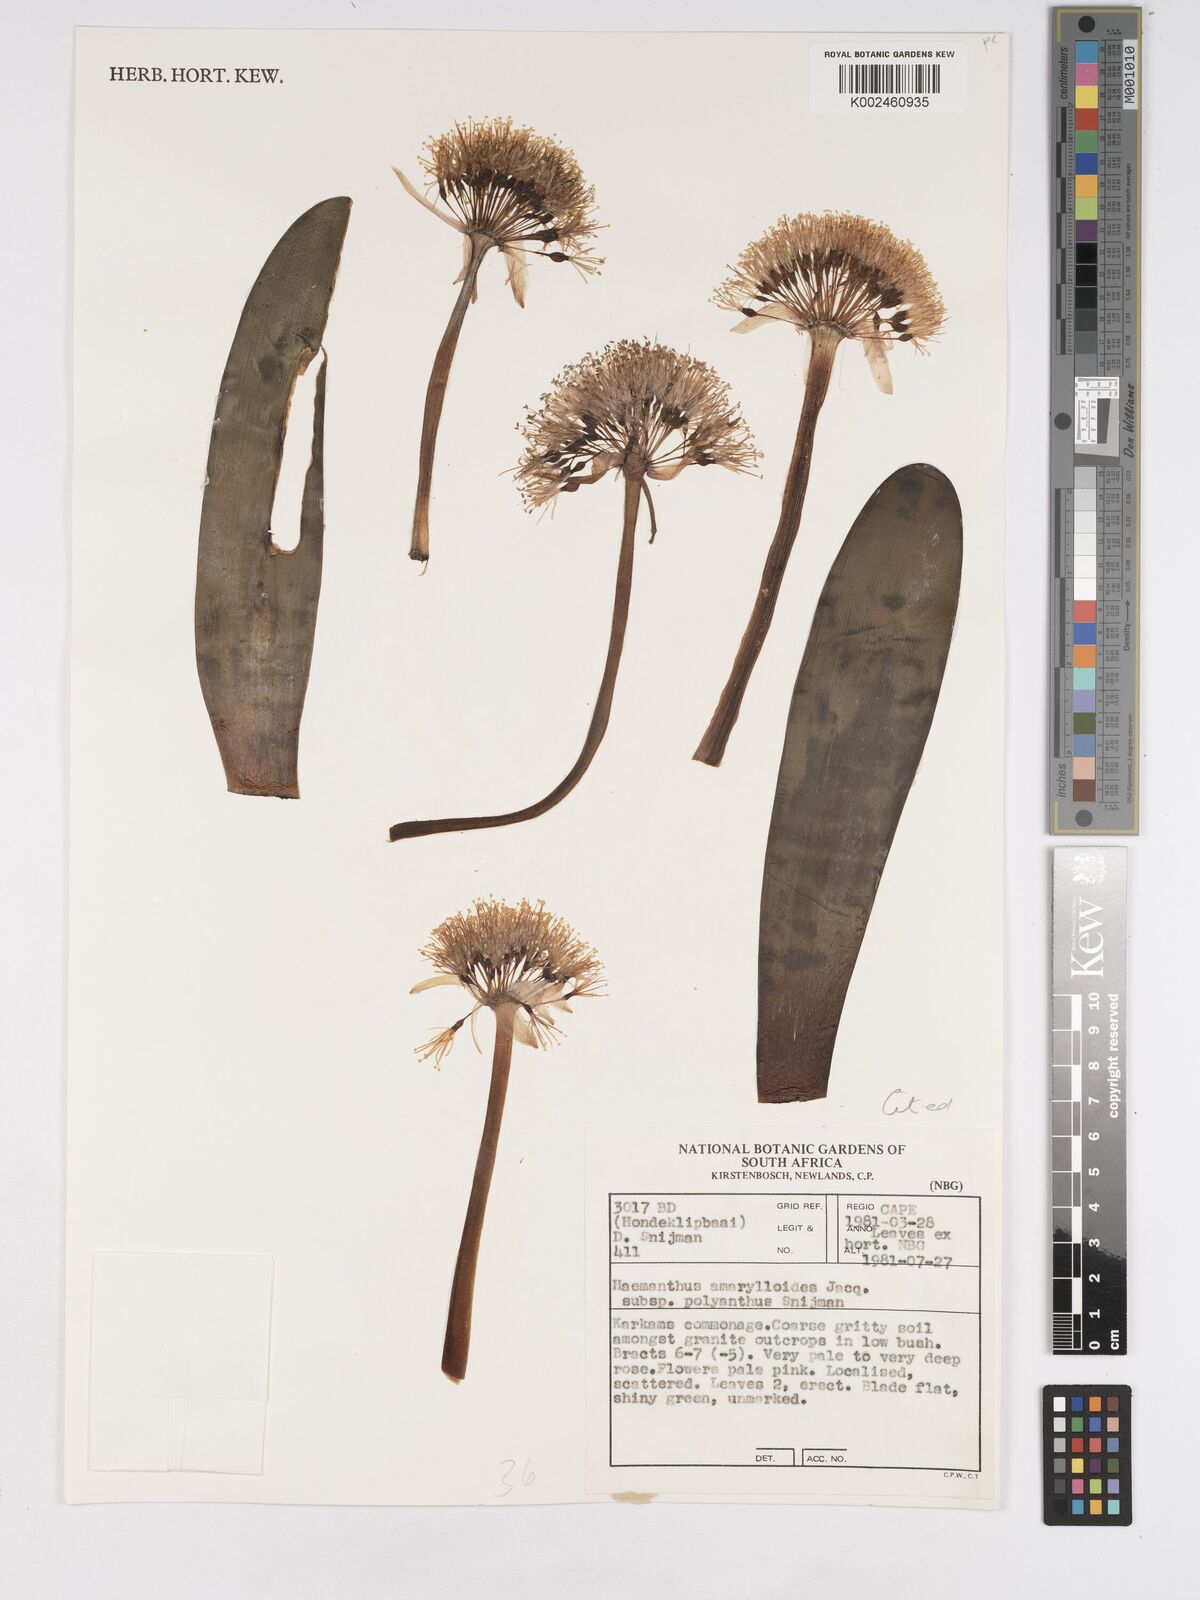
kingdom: Plantae
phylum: Tracheophyta
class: Liliopsida
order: Asparagales
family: Amaryllidaceae
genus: Haemanthus
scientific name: Haemanthus amarylloides
